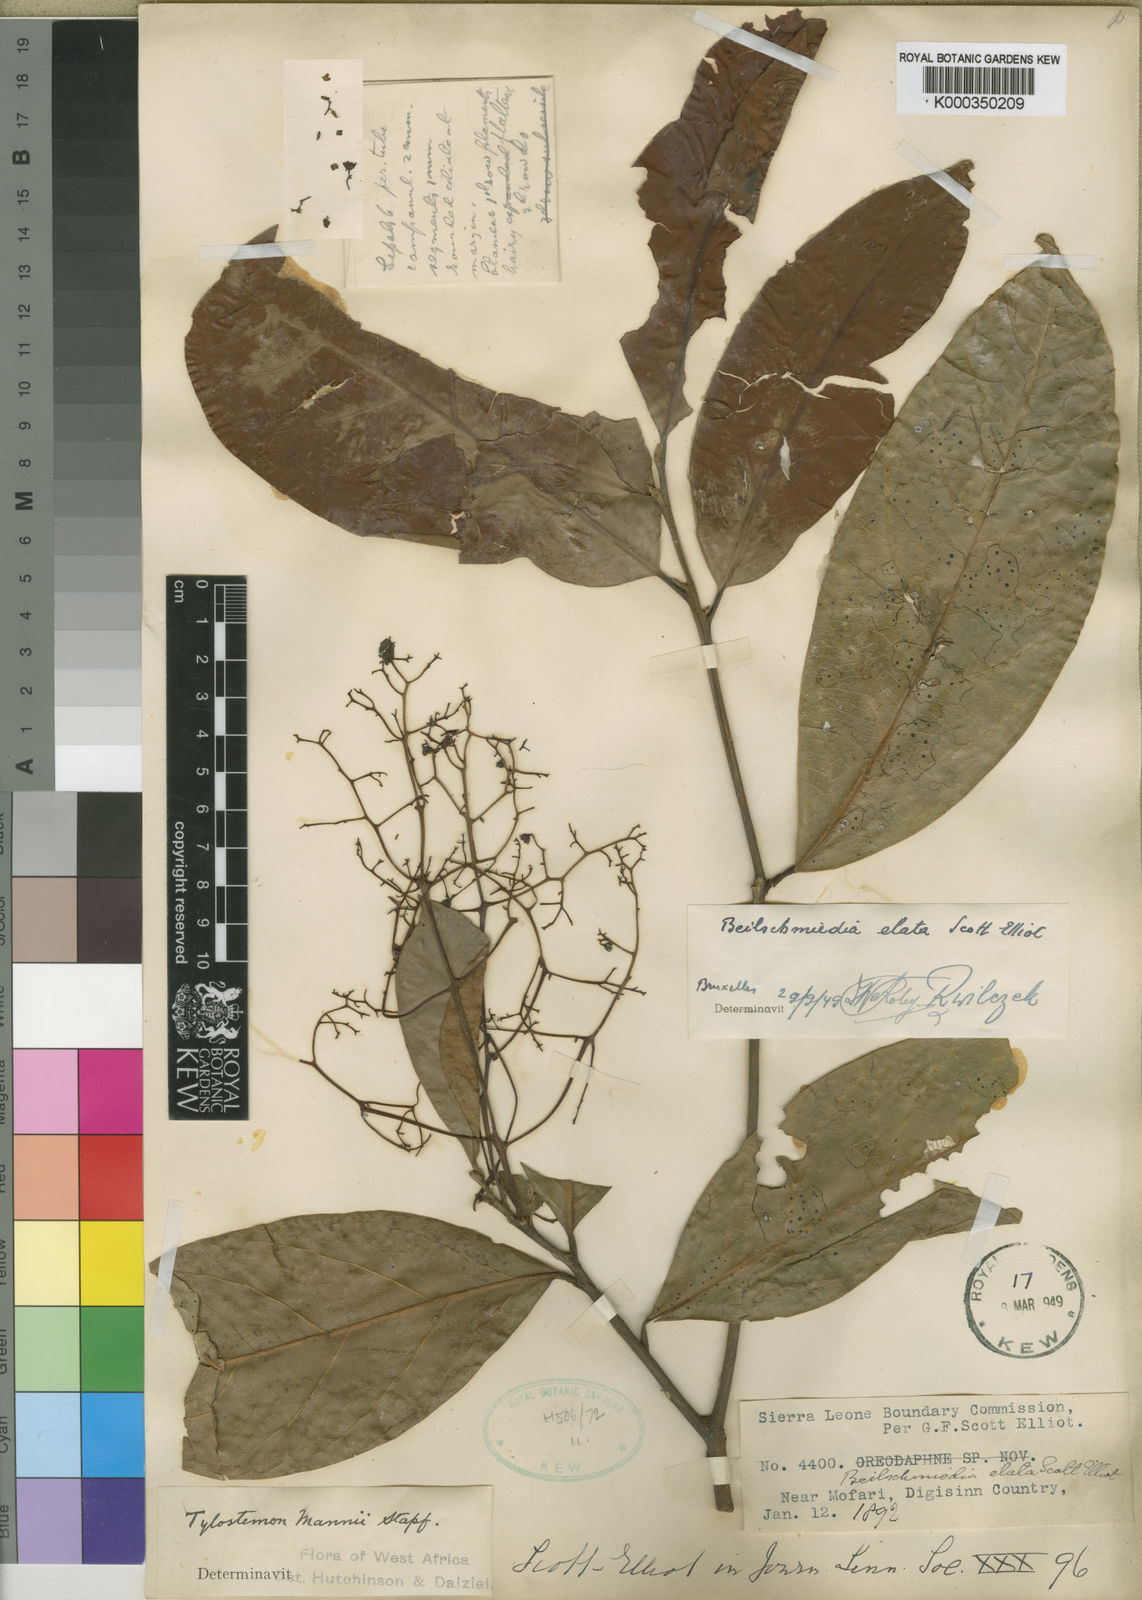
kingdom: Plantae
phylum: Tracheophyta
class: Magnoliopsida
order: Laurales
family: Lauraceae
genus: Beilschmiedia
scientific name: Beilschmiedia mannii
